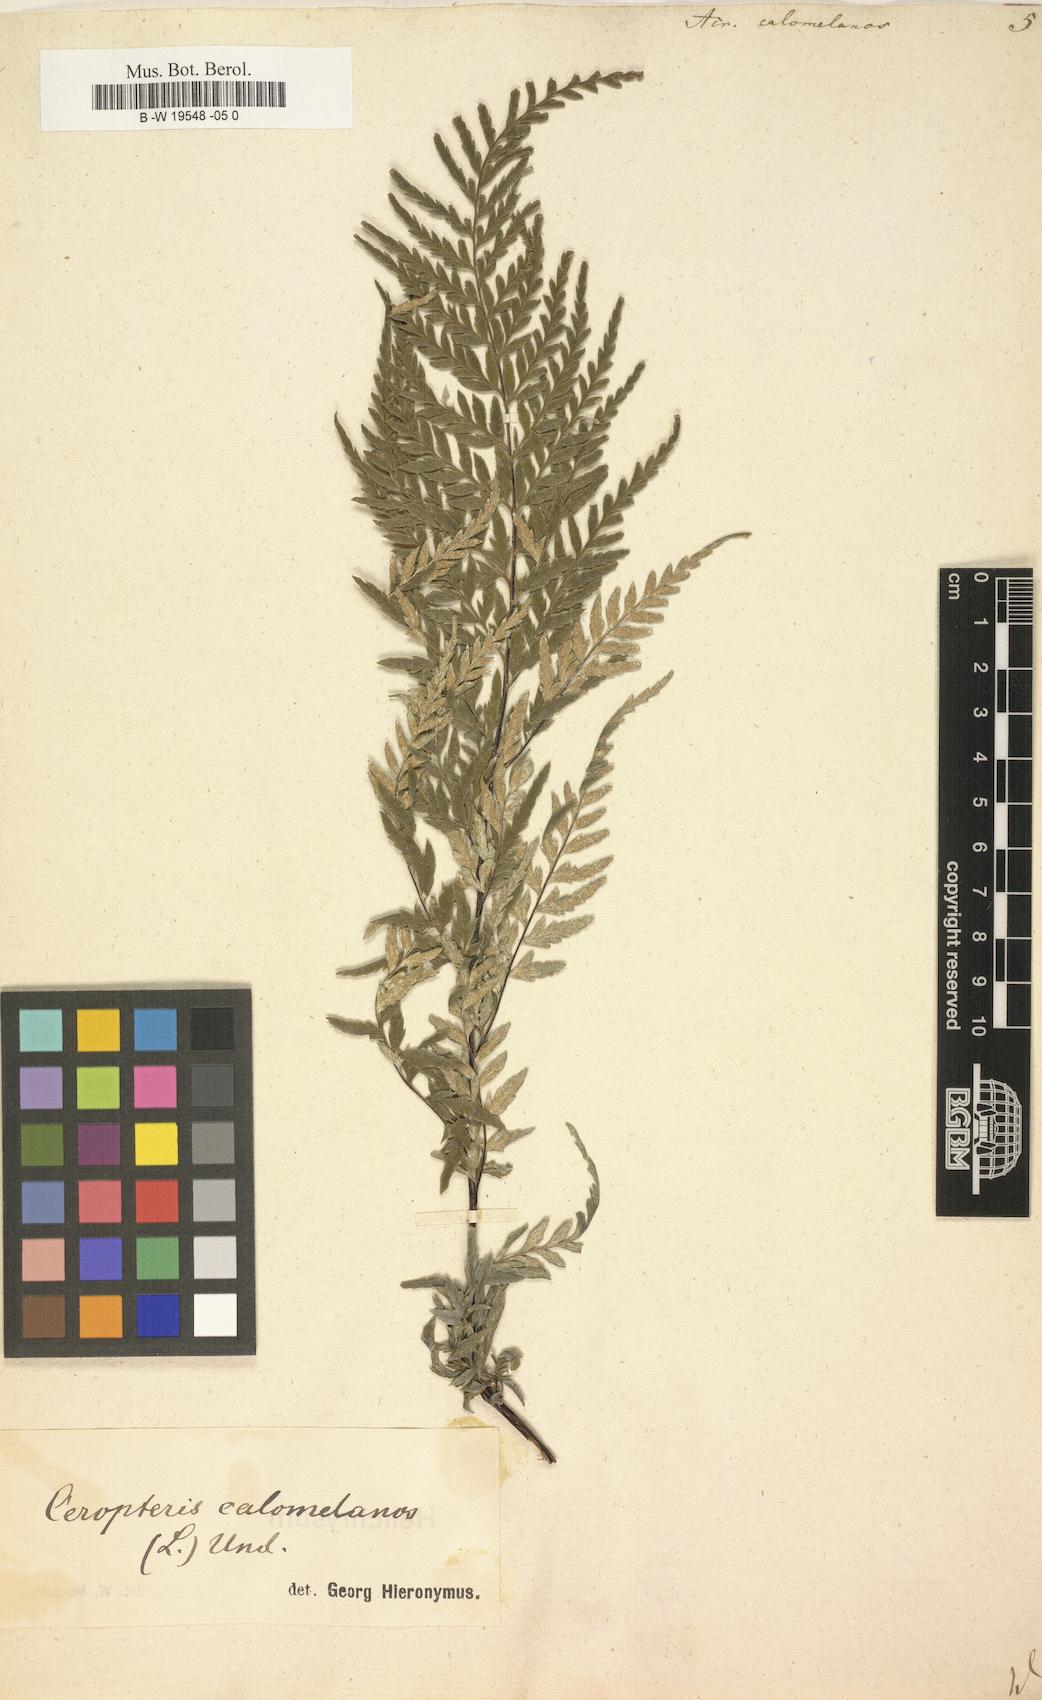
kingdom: Plantae
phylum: Tracheophyta
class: Polypodiopsida
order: Polypodiales
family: Pteridaceae
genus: Pityrogramma
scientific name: Pityrogramma calomelanos
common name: Dixie silverback fern
